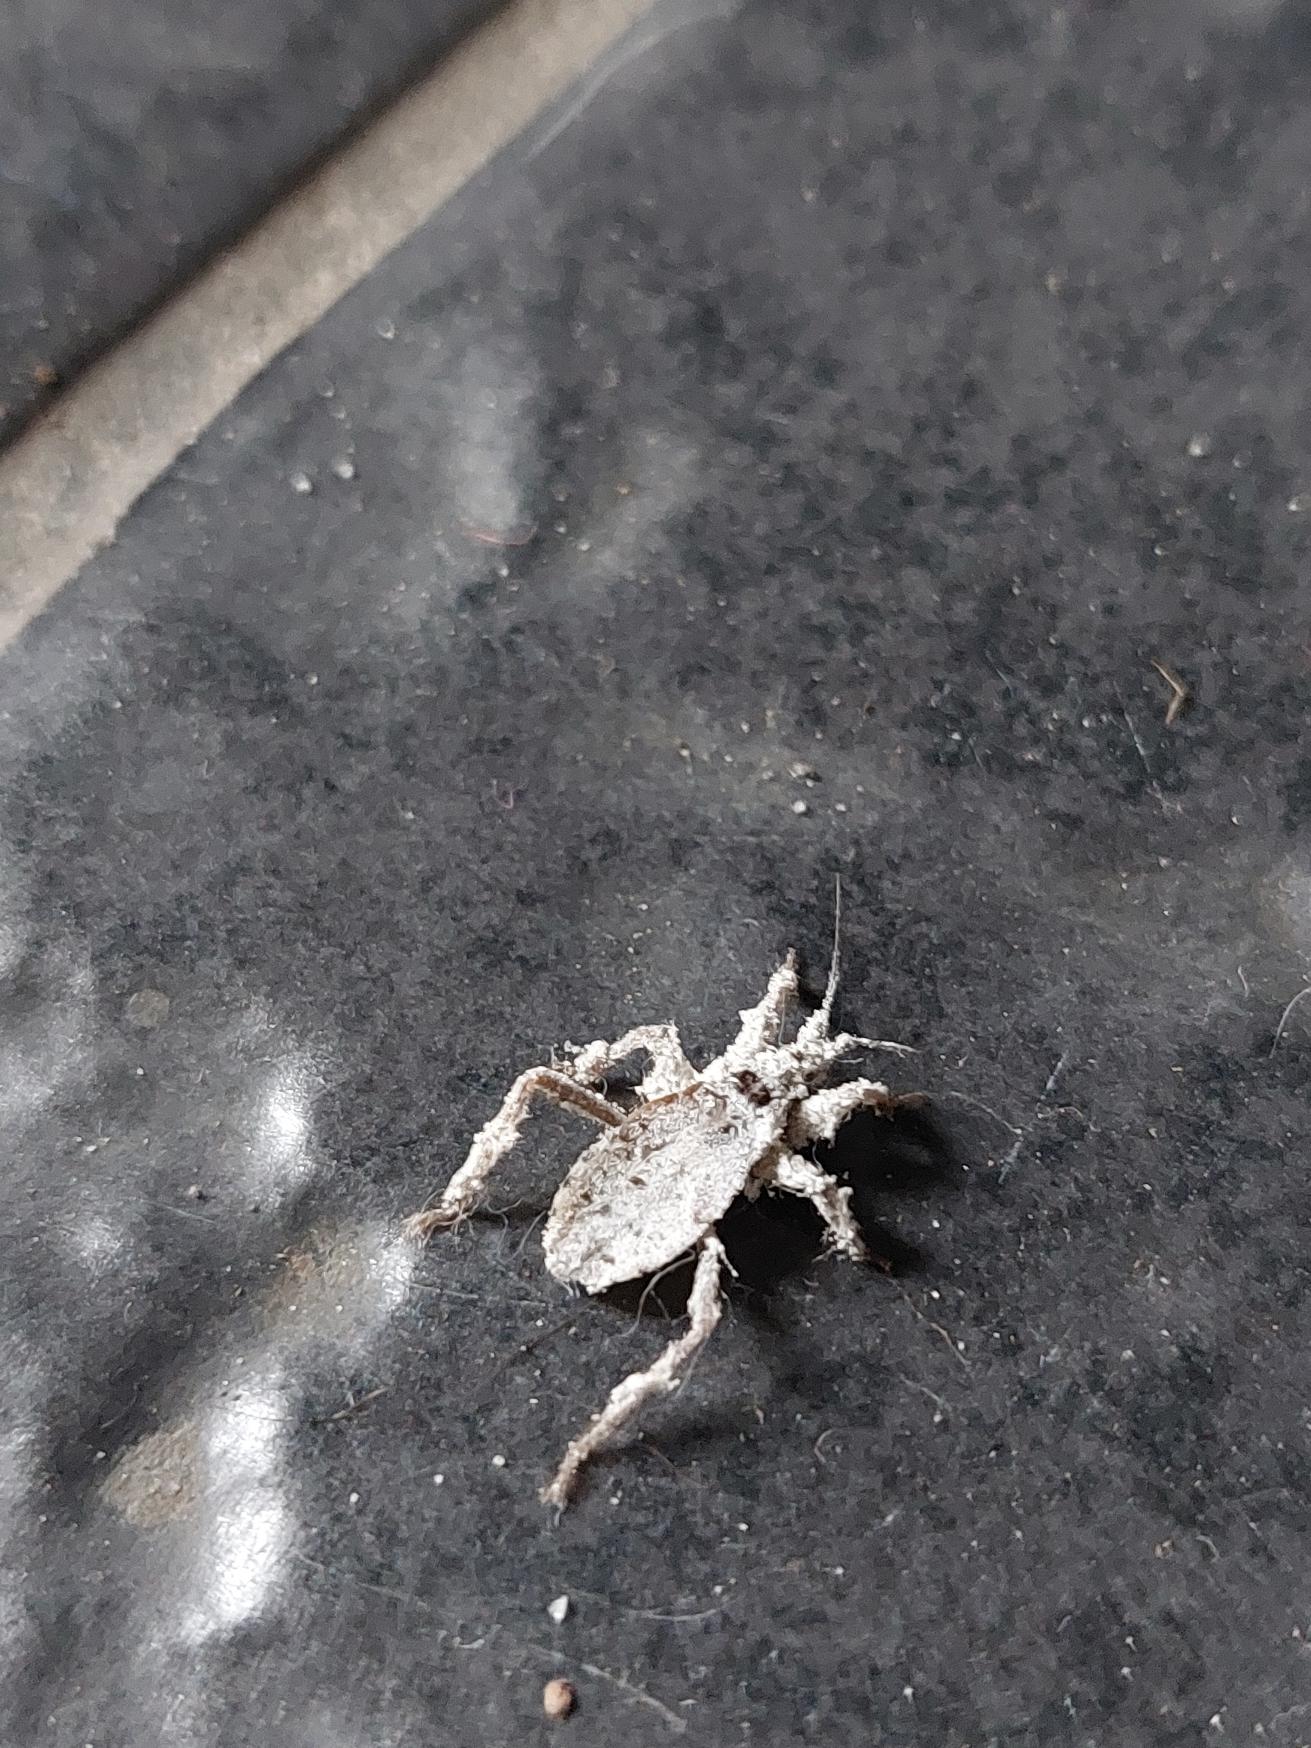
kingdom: Animalia
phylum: Arthropoda
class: Insecta
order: Hemiptera
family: Reduviidae
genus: Reduvius
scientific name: Reduvius personatus
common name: Skarntæge
